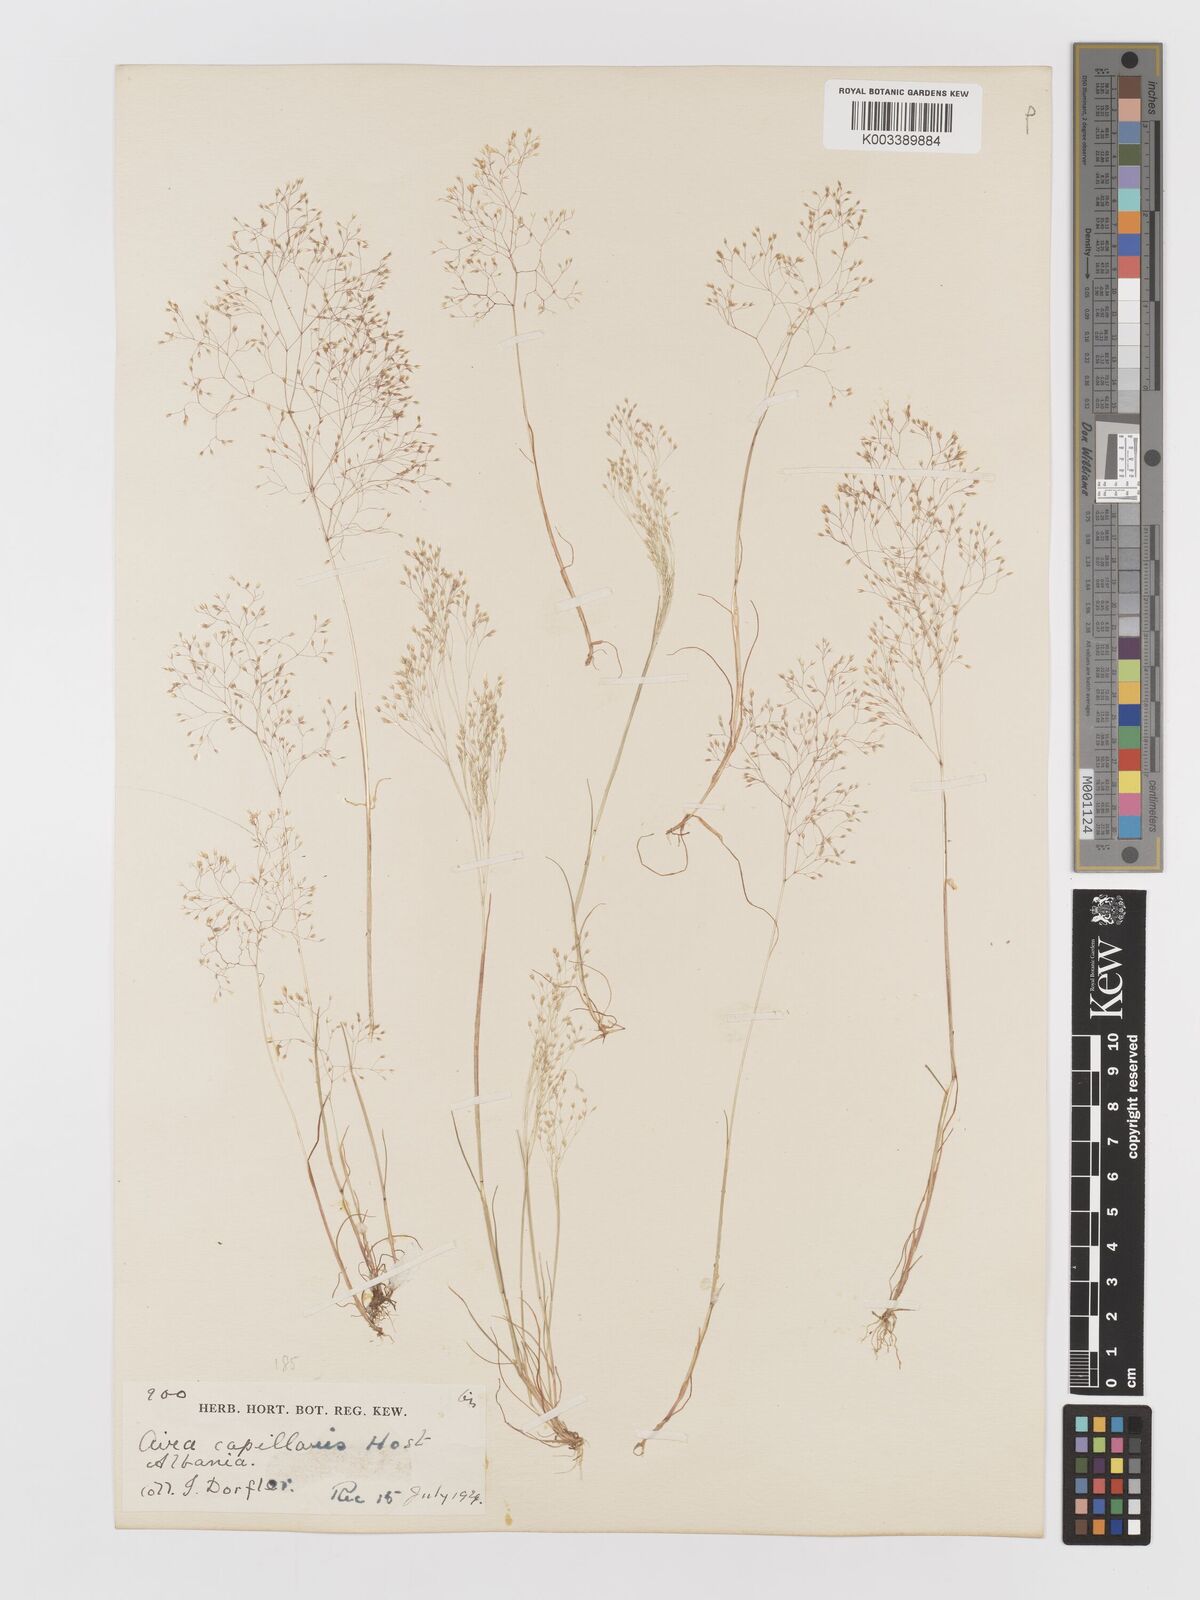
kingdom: Plantae
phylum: Tracheophyta
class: Liliopsida
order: Poales
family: Poaceae
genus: Aira
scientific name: Aira elegans
